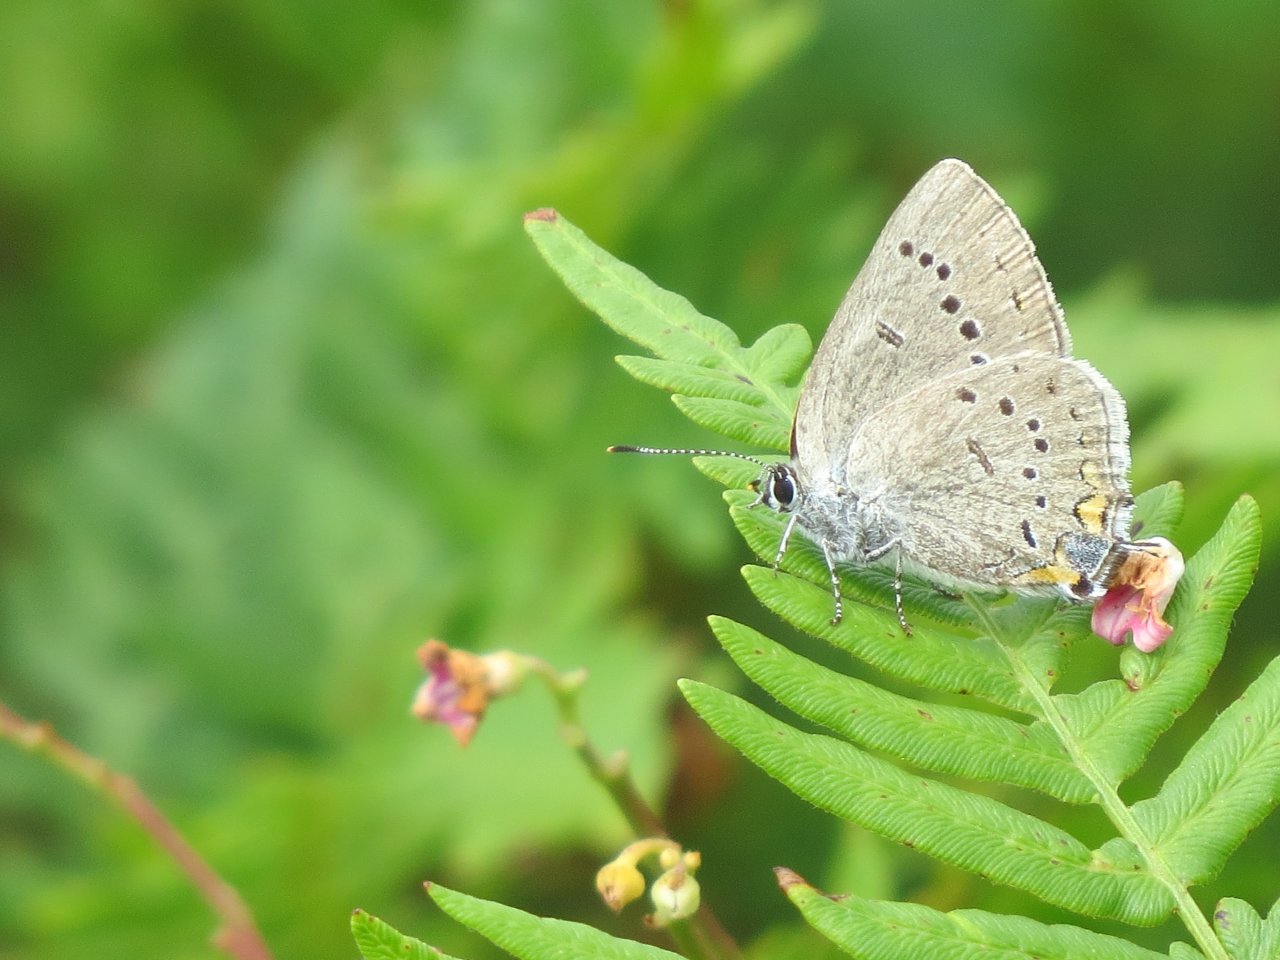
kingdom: Animalia
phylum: Arthropoda
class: Insecta
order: Lepidoptera
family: Lycaenidae
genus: Strymon
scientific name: Strymon acadica
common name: Acadian Hairstreak
